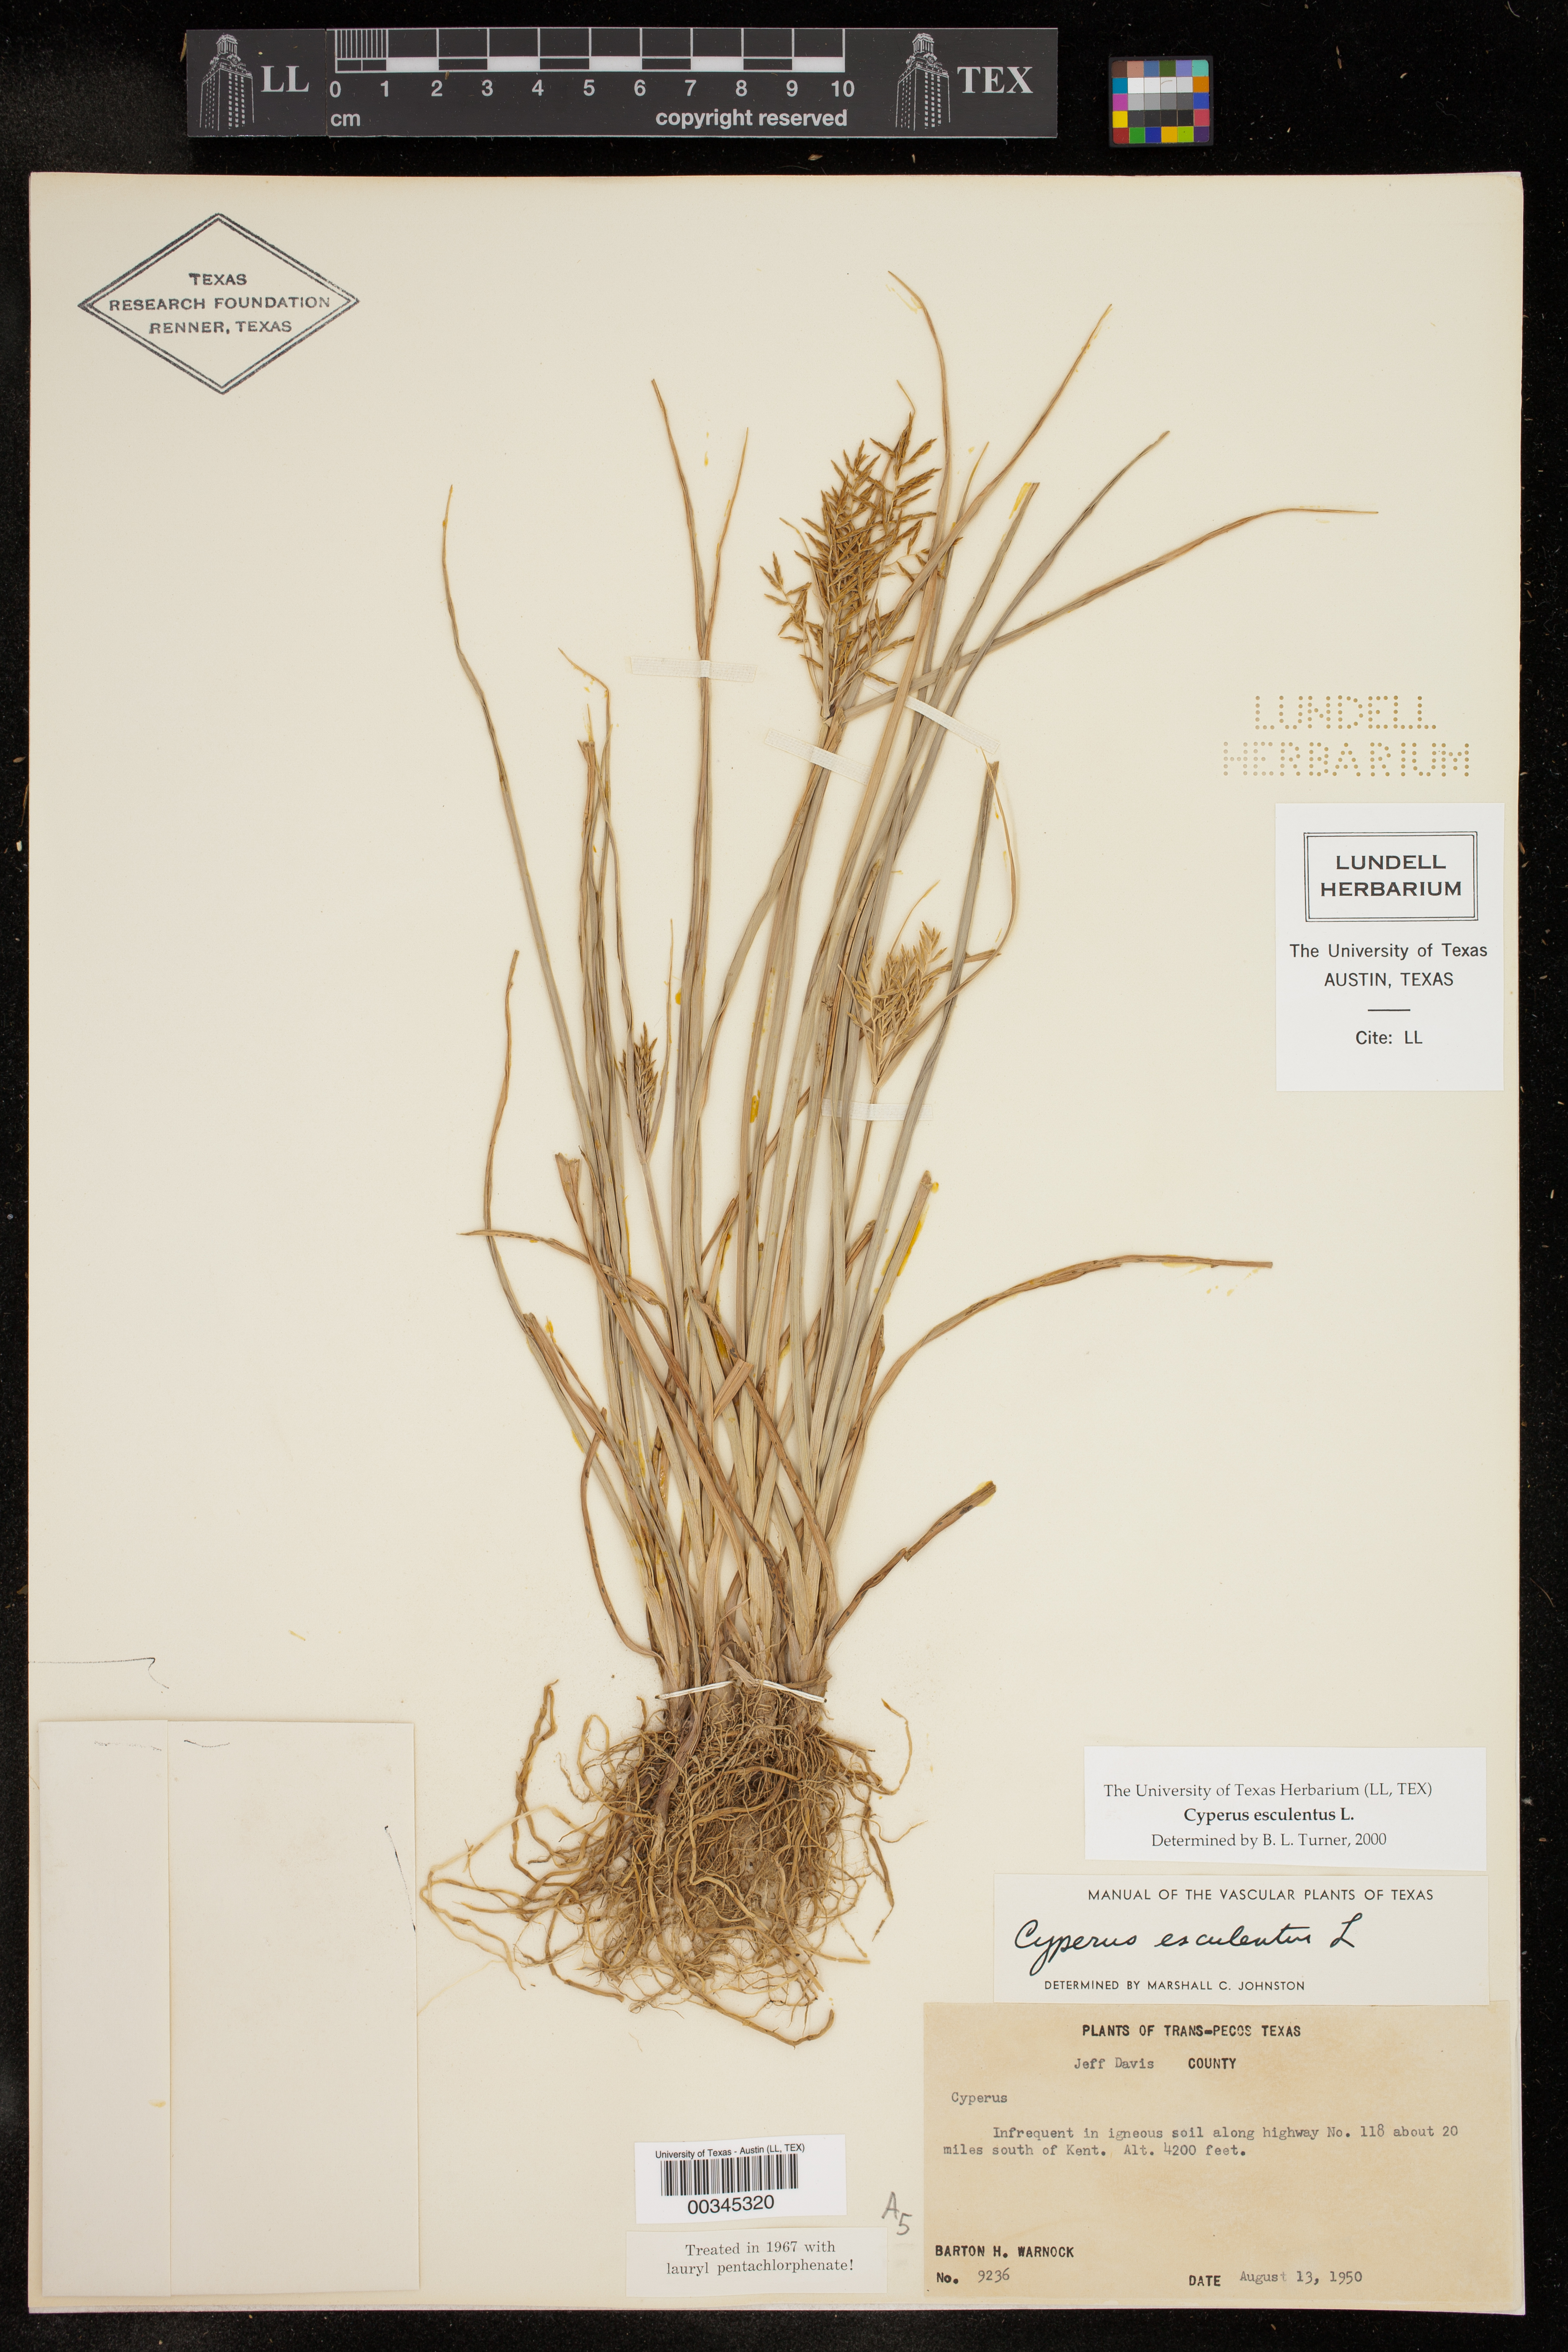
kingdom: Plantae
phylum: Tracheophyta
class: Liliopsida
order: Poales
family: Cyperaceae
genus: Cyperus
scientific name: Cyperus esculentus
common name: Yellow nutsedge
